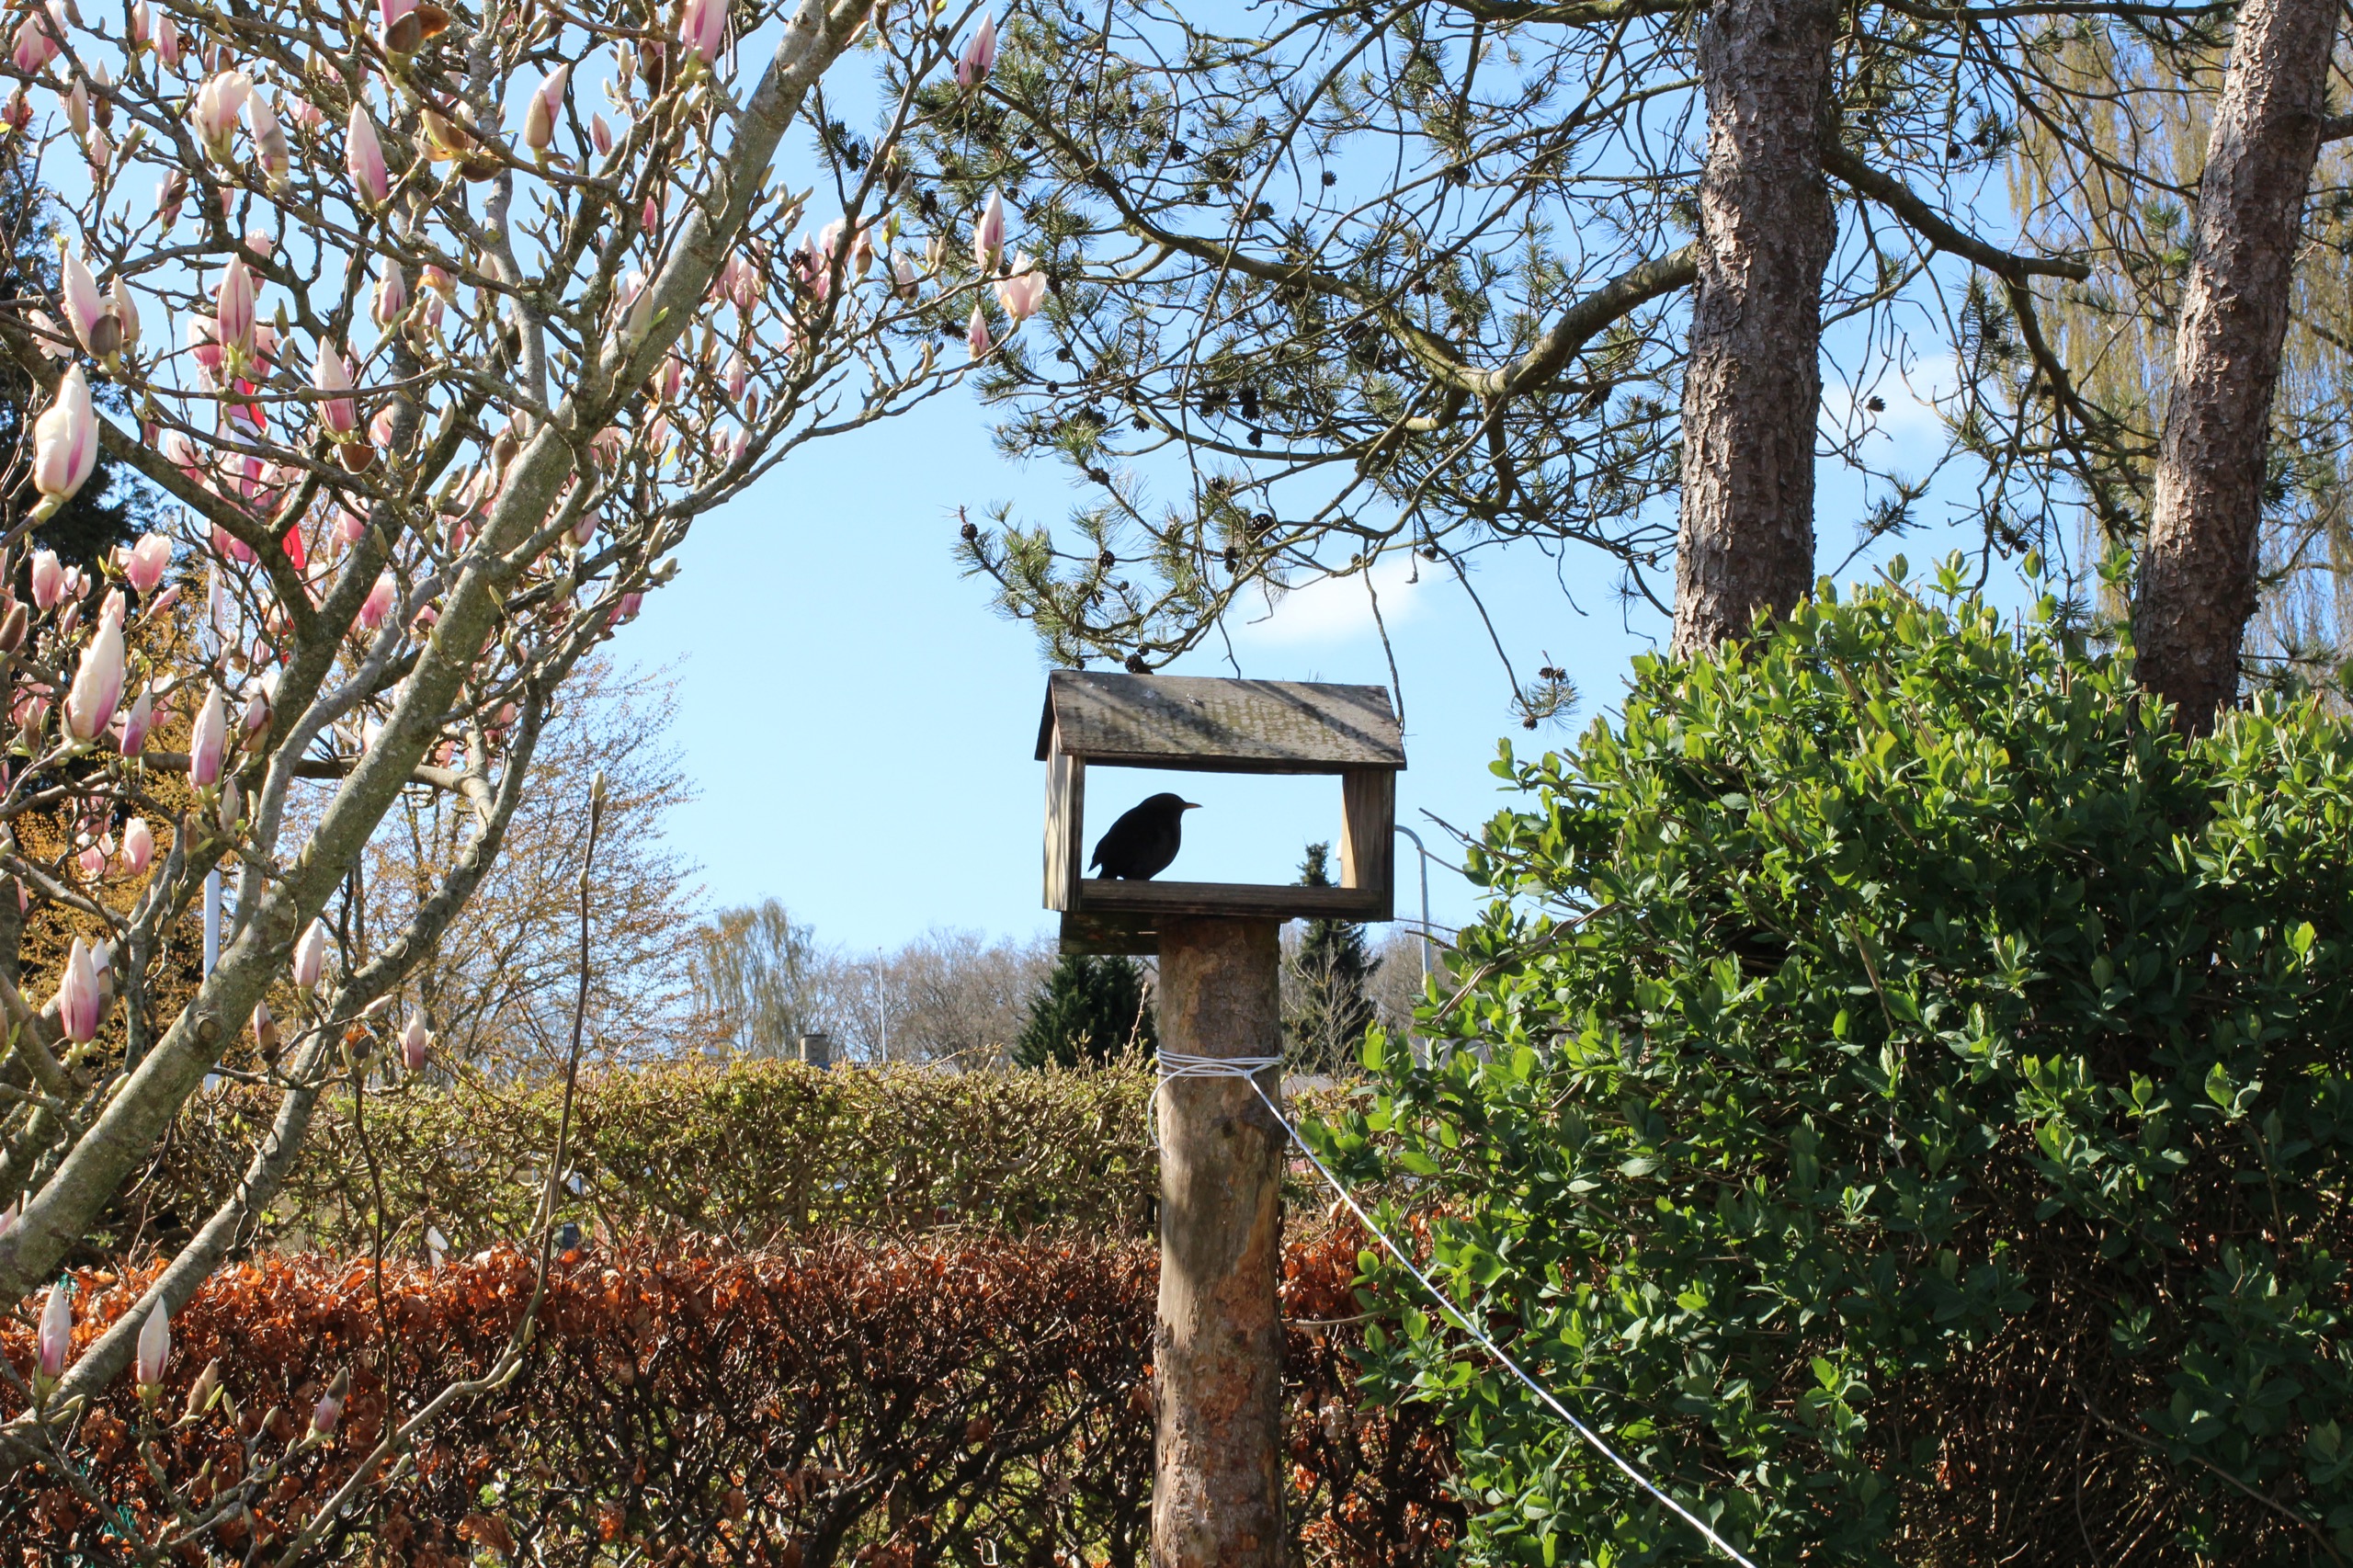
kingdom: Animalia
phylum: Chordata
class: Aves
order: Passeriformes
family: Turdidae
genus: Turdus
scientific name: Turdus merula
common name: Solsort
